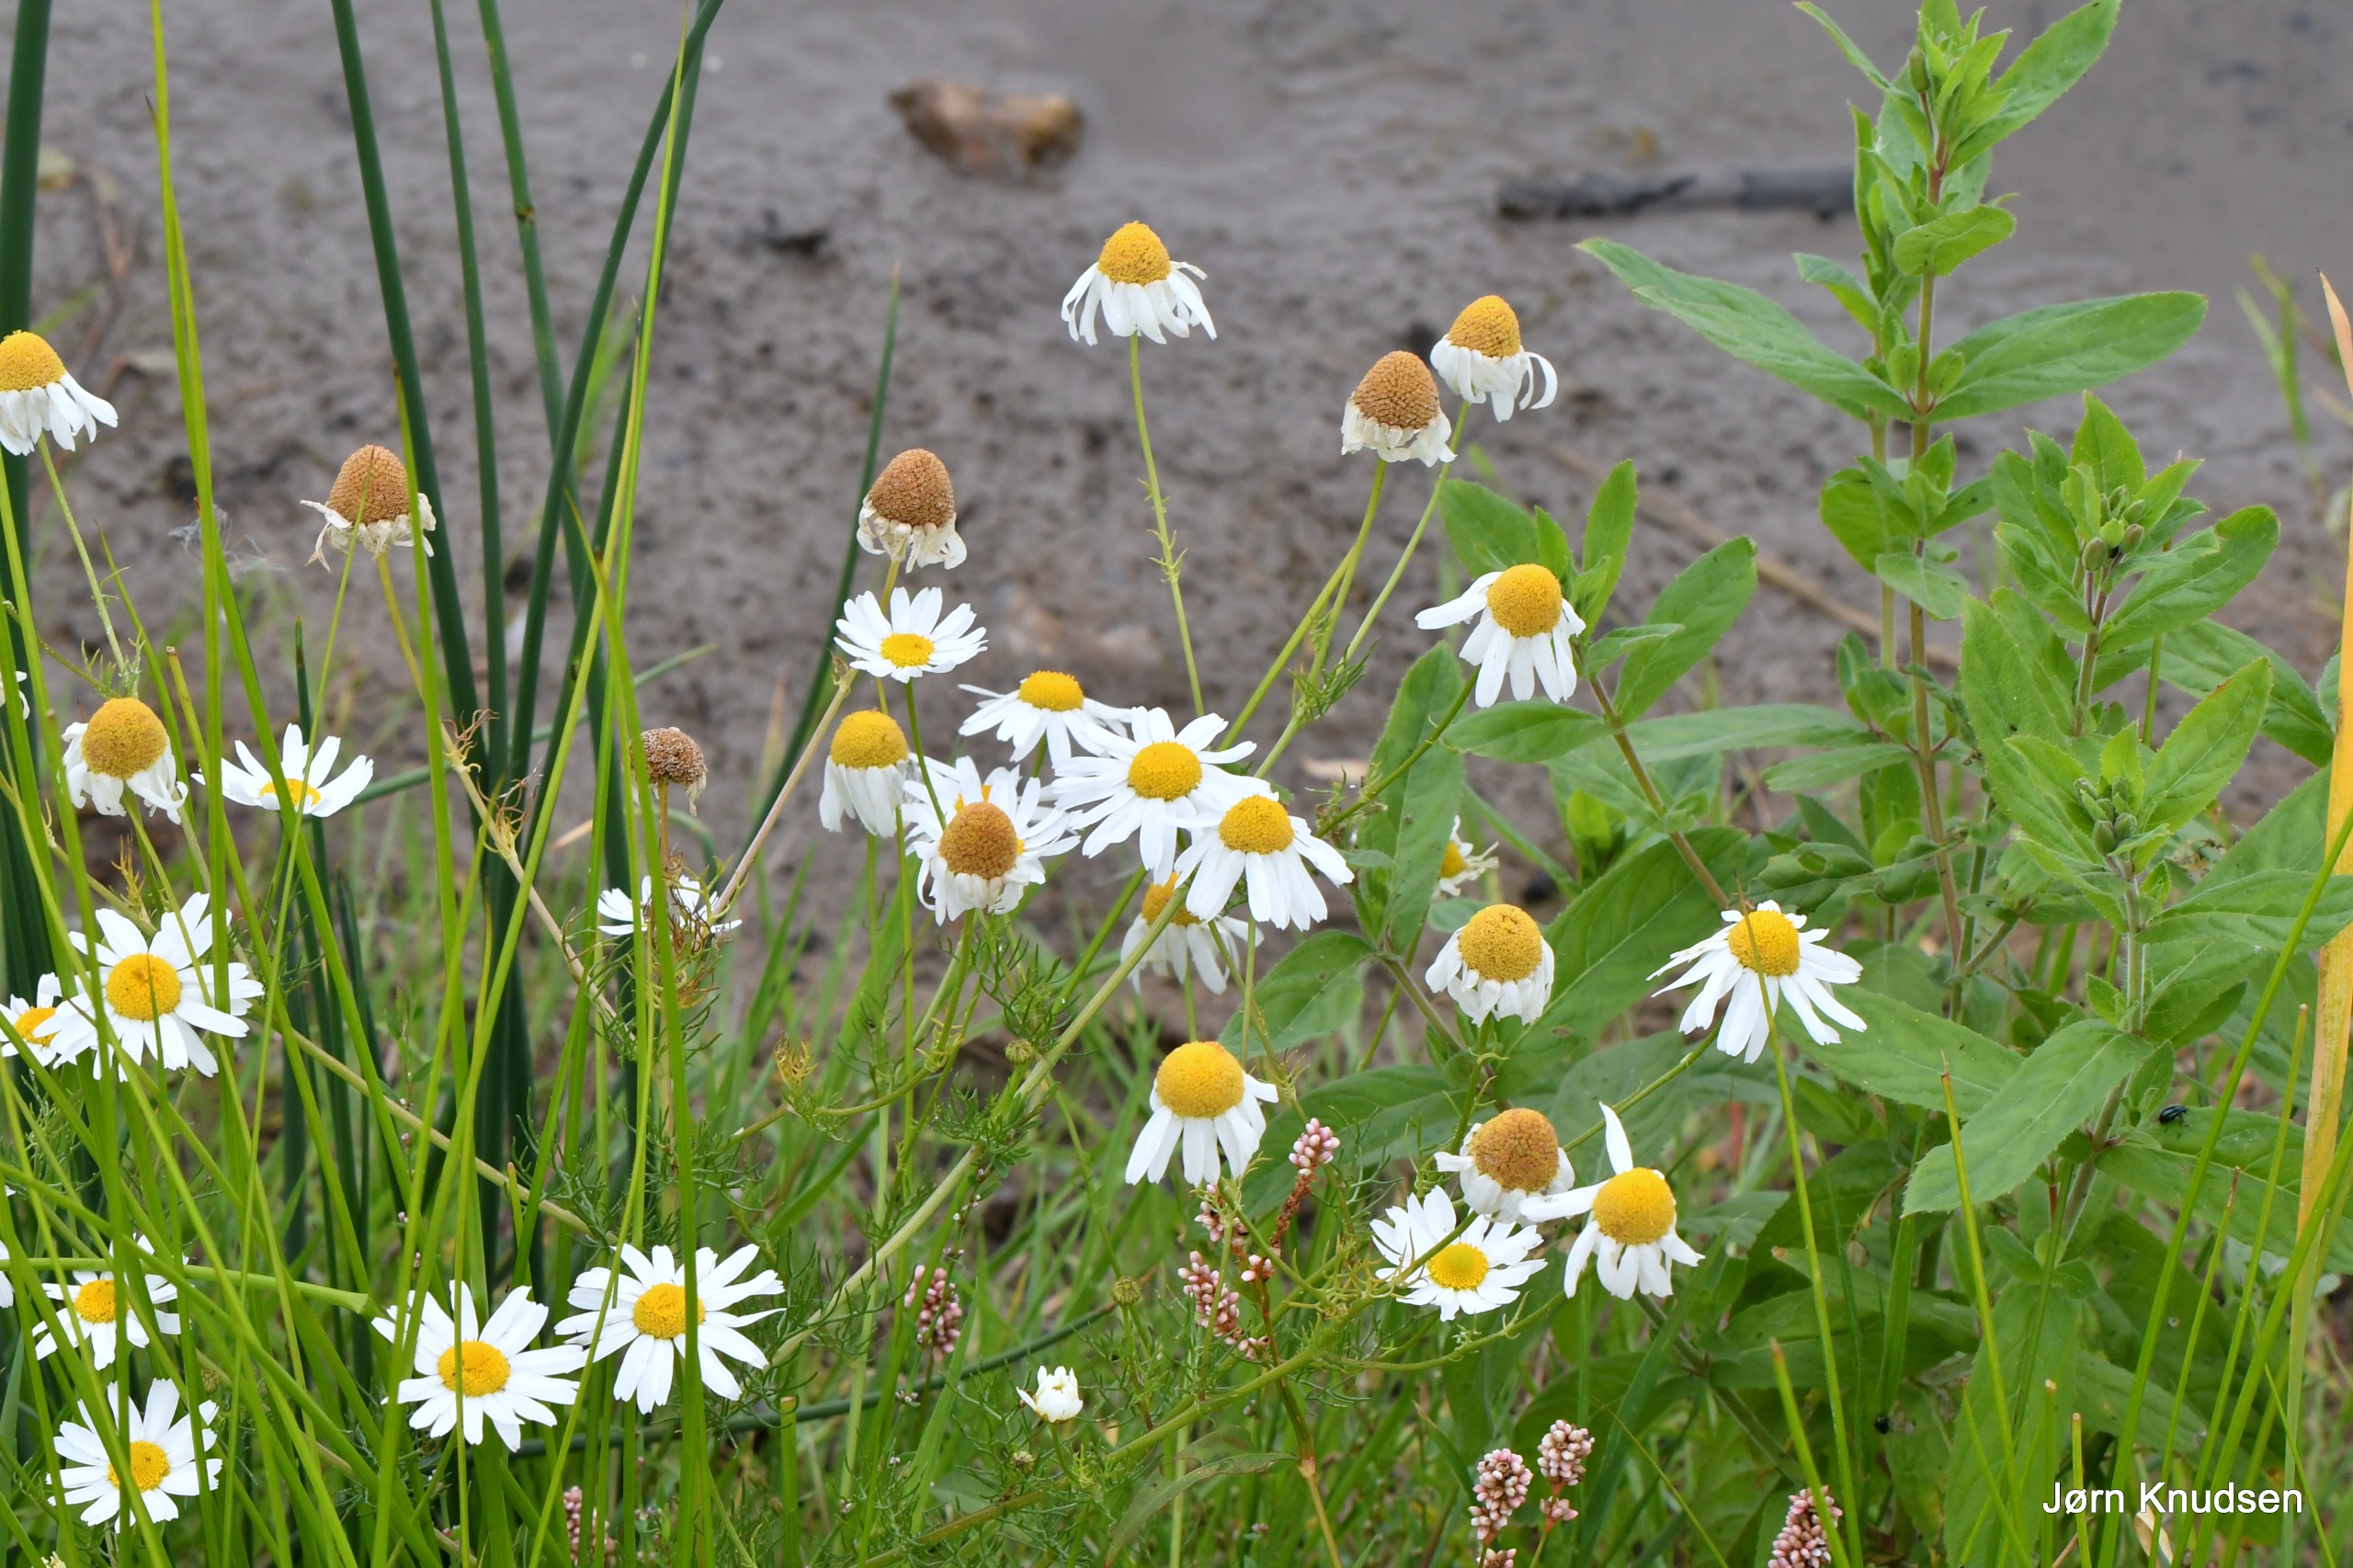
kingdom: Plantae
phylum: Tracheophyta
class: Magnoliopsida
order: Asterales
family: Asteraceae
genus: Tripleurospermum
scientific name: Tripleurospermum inodorum
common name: Lugtløs kamille
